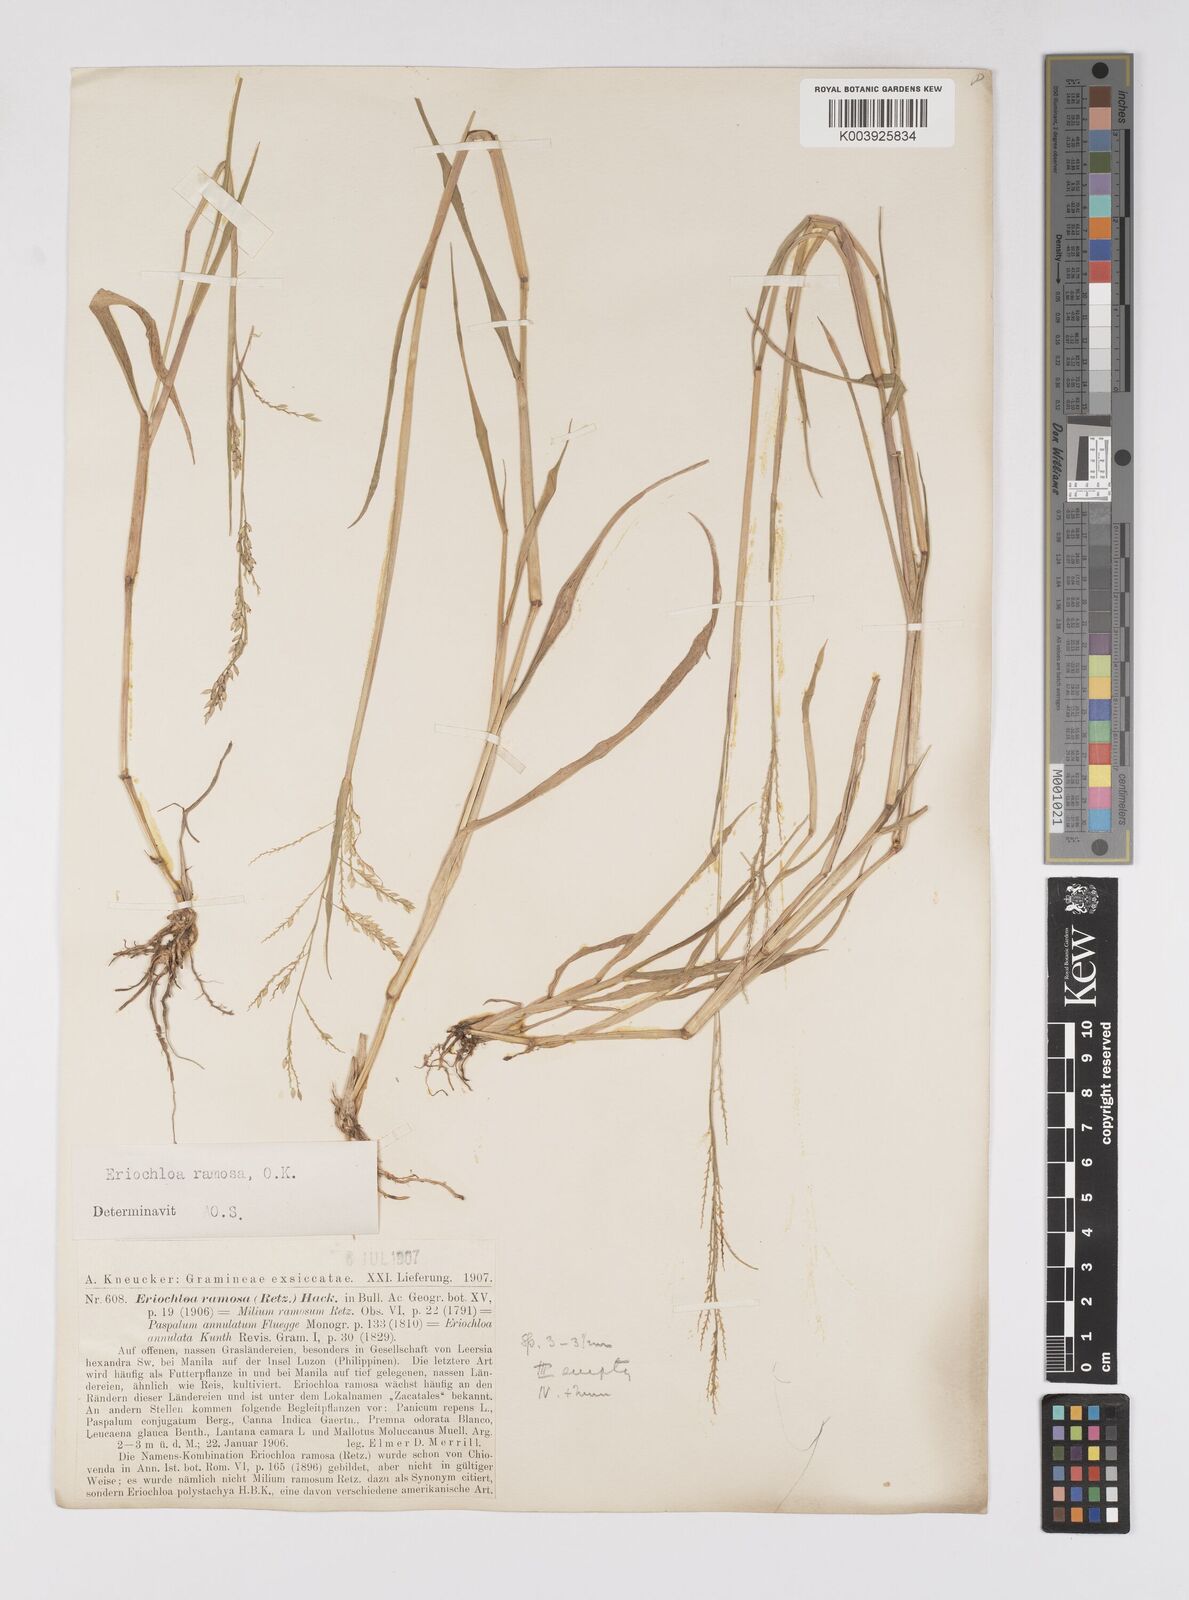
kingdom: Plantae
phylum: Tracheophyta
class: Liliopsida
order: Poales
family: Poaceae
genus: Eriochloa
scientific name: Eriochloa procera
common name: Spring grass
